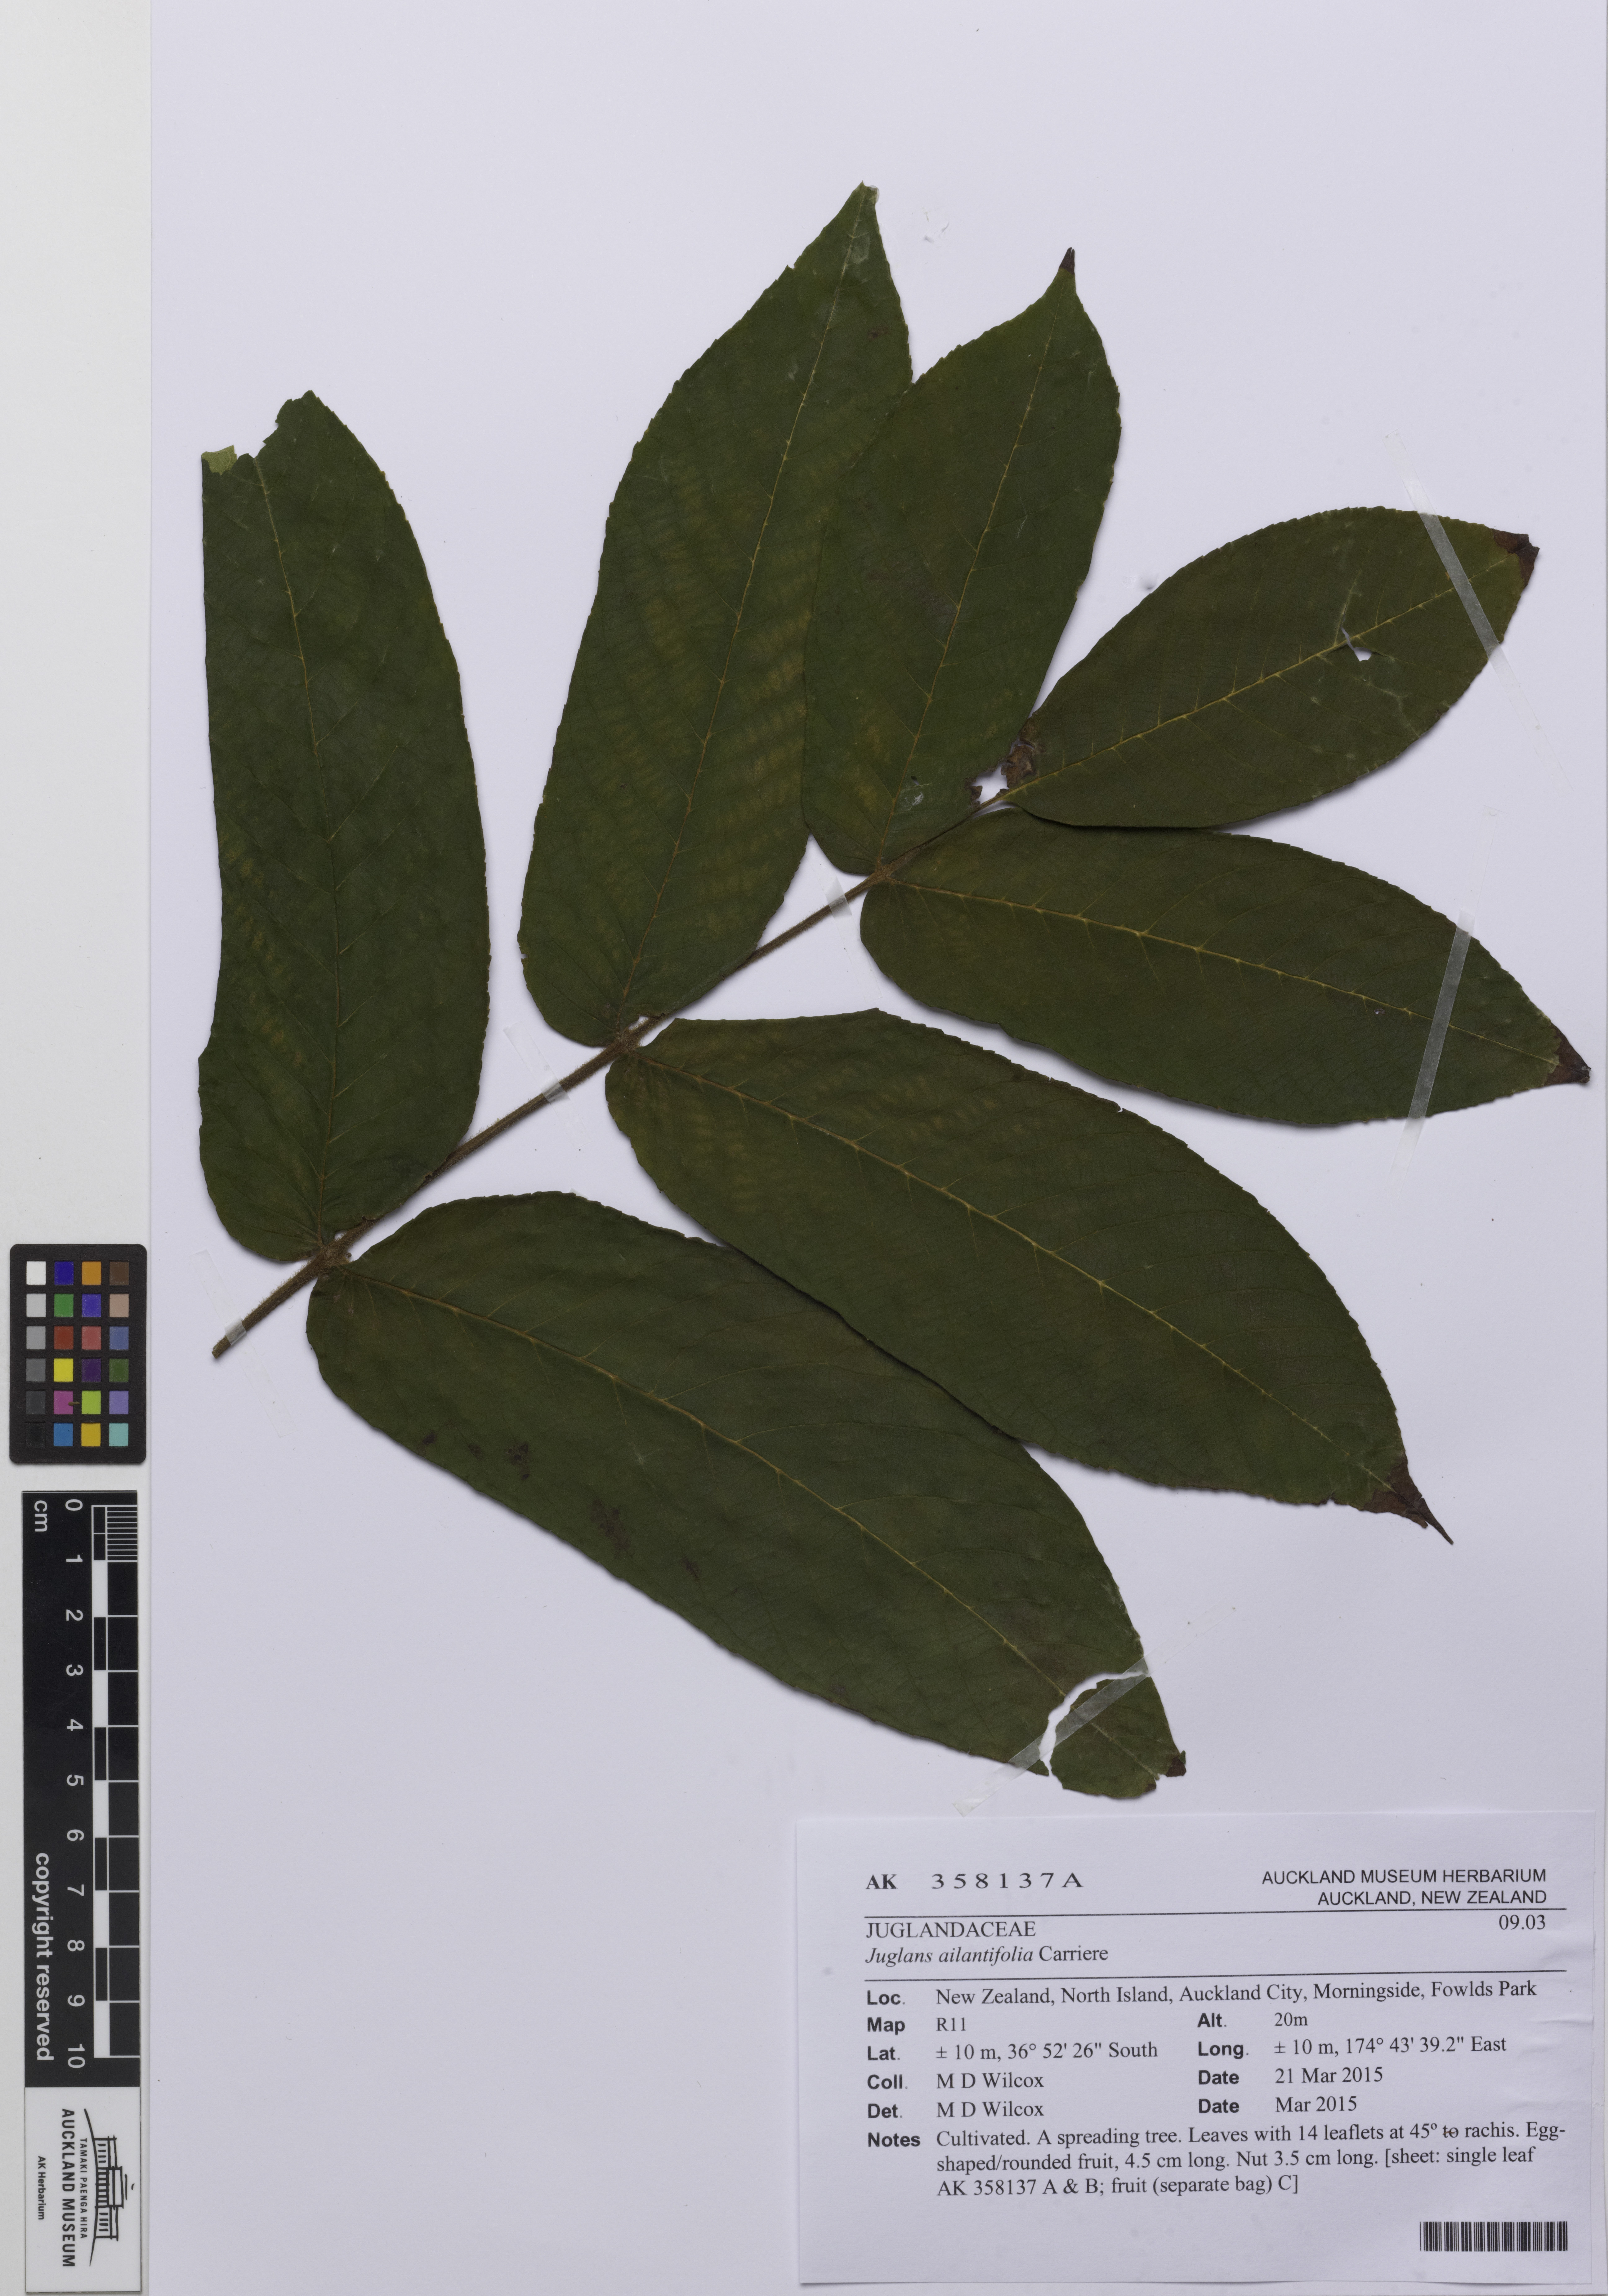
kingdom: Plantae
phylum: Tracheophyta
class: Magnoliopsida
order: Fagales
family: Juglandaceae
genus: Juglans
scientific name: Juglans ailantifolia
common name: Japanese walnut
